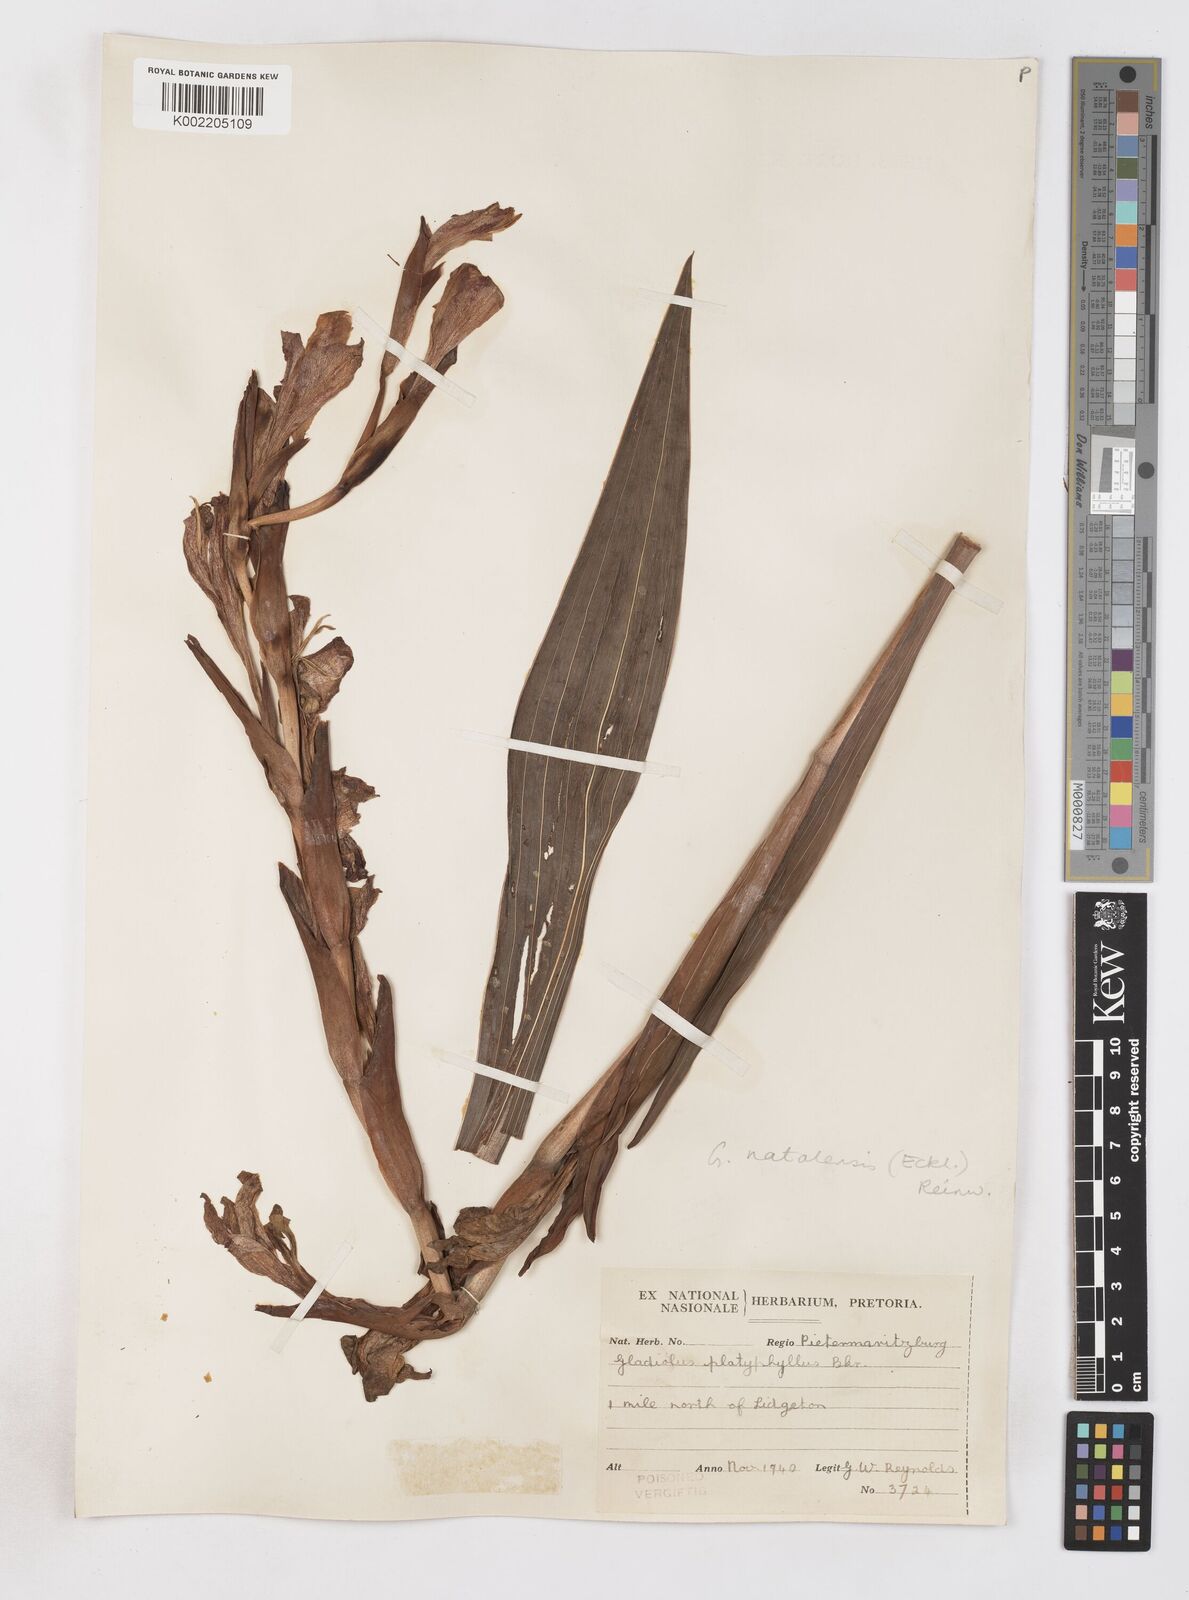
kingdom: Plantae
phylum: Tracheophyta
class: Liliopsida
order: Asparagales
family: Iridaceae
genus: Gladiolus
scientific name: Gladiolus dalenii
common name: Cornflag
